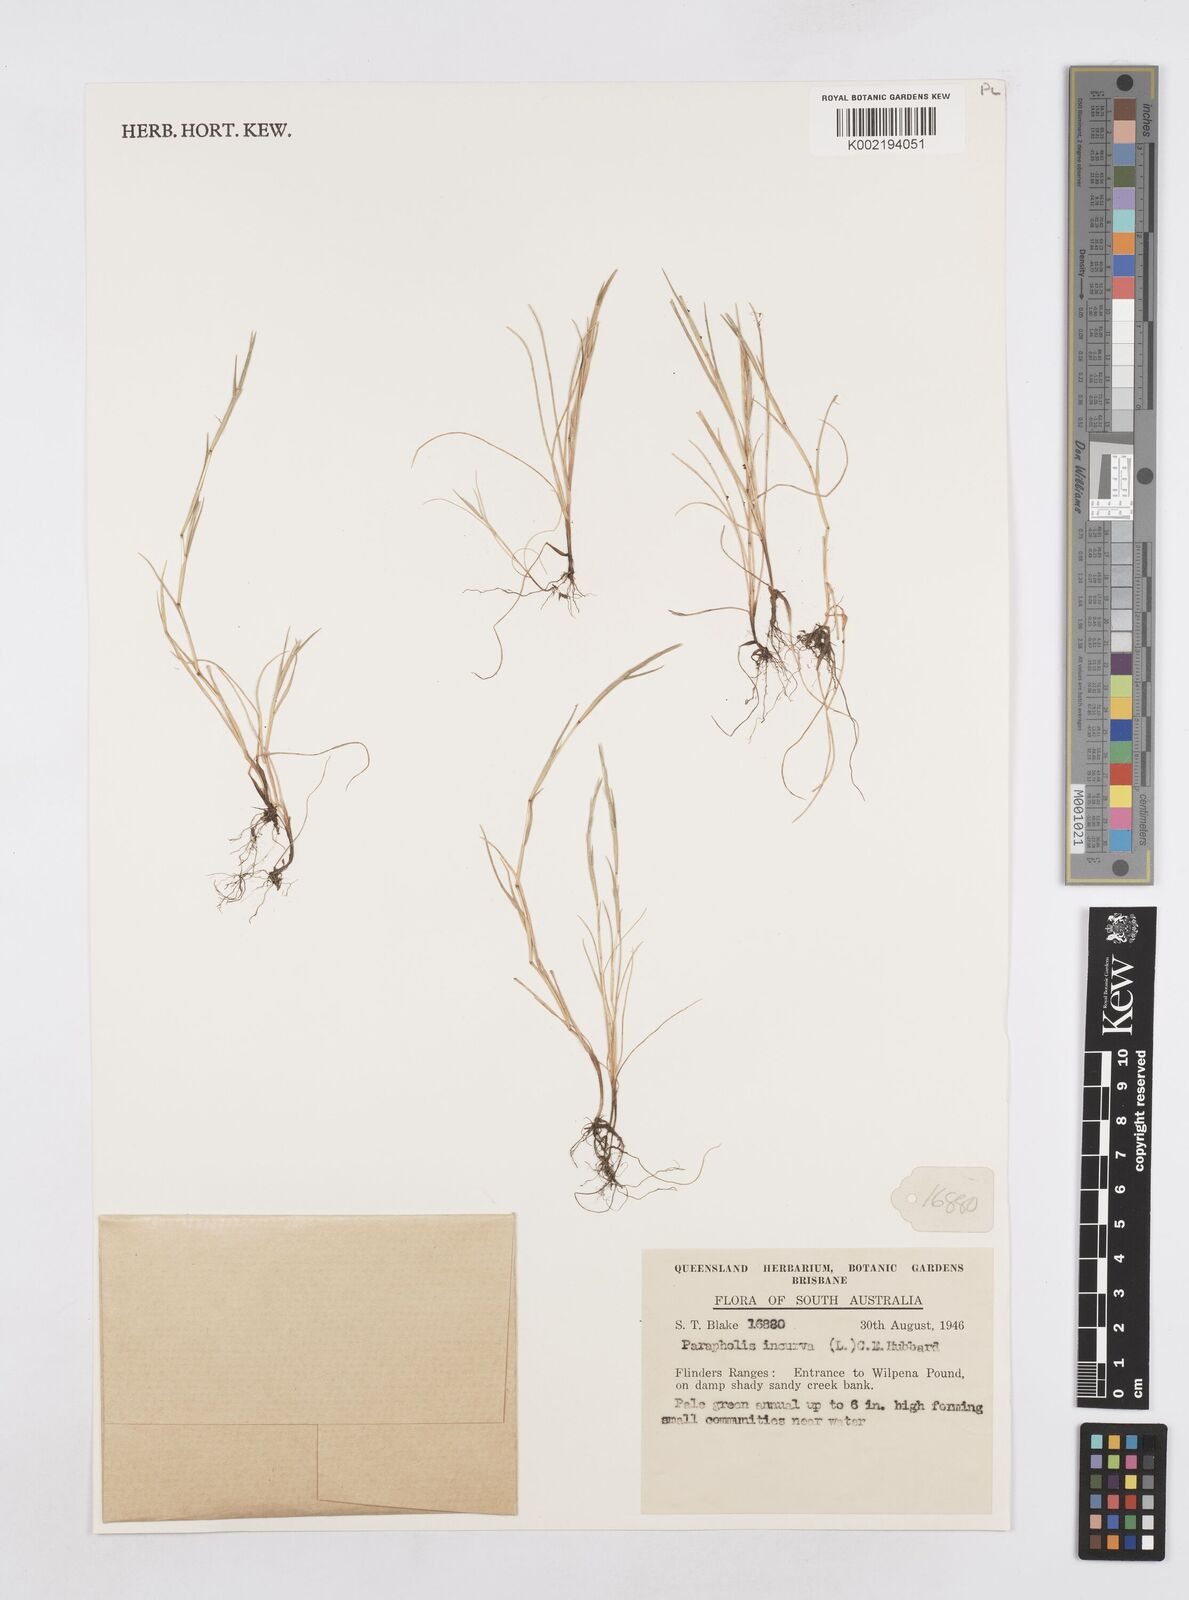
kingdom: Plantae
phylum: Tracheophyta
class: Liliopsida
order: Poales
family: Poaceae
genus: Parapholis
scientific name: Parapholis incurva
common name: Curved sicklegrass
